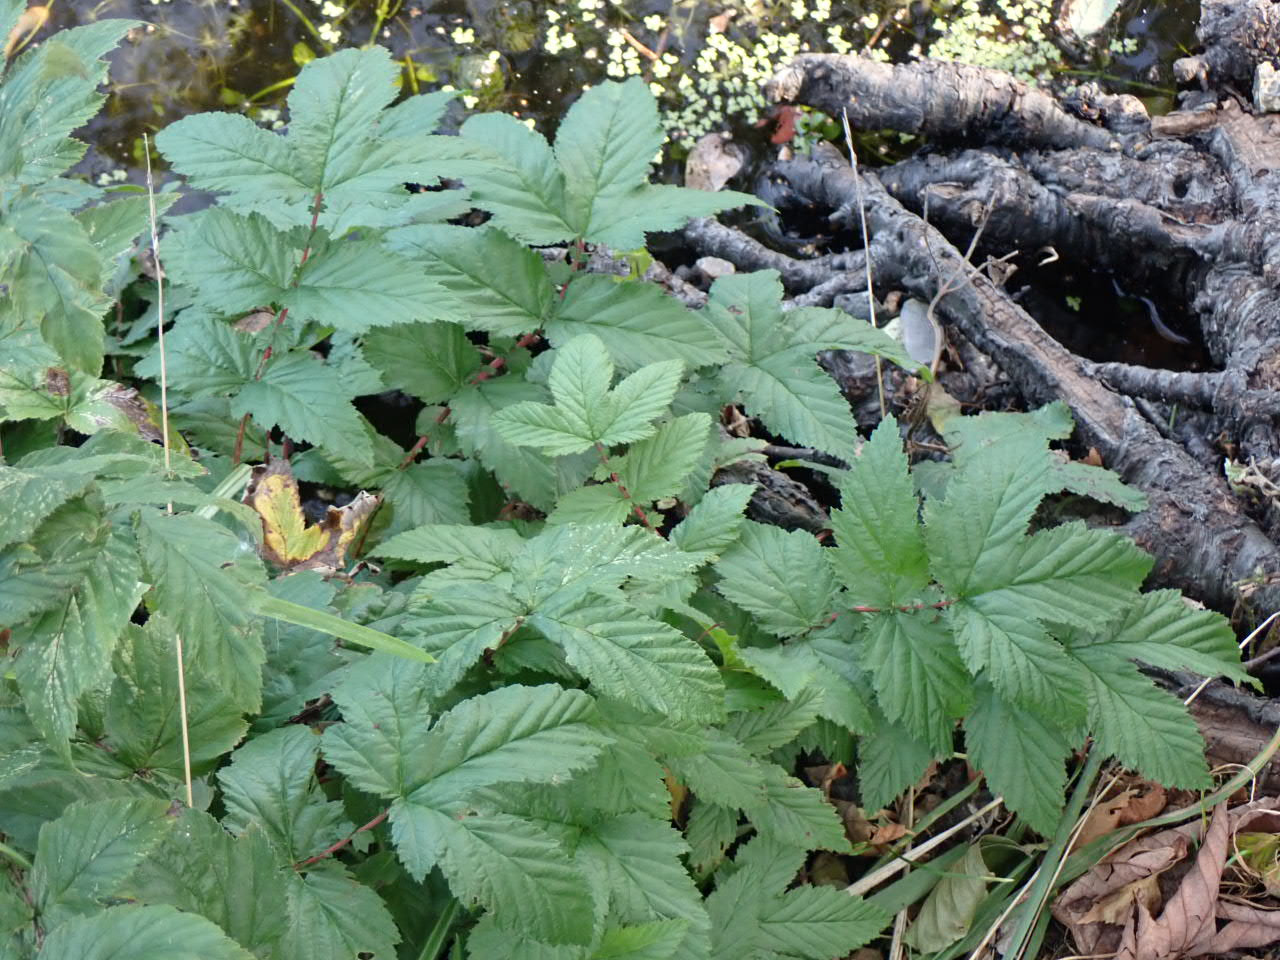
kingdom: Plantae
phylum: Tracheophyta
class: Magnoliopsida
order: Rosales
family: Rosaceae
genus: Filipendula
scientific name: Filipendula ulmaria
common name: Almindelig mjødurt
